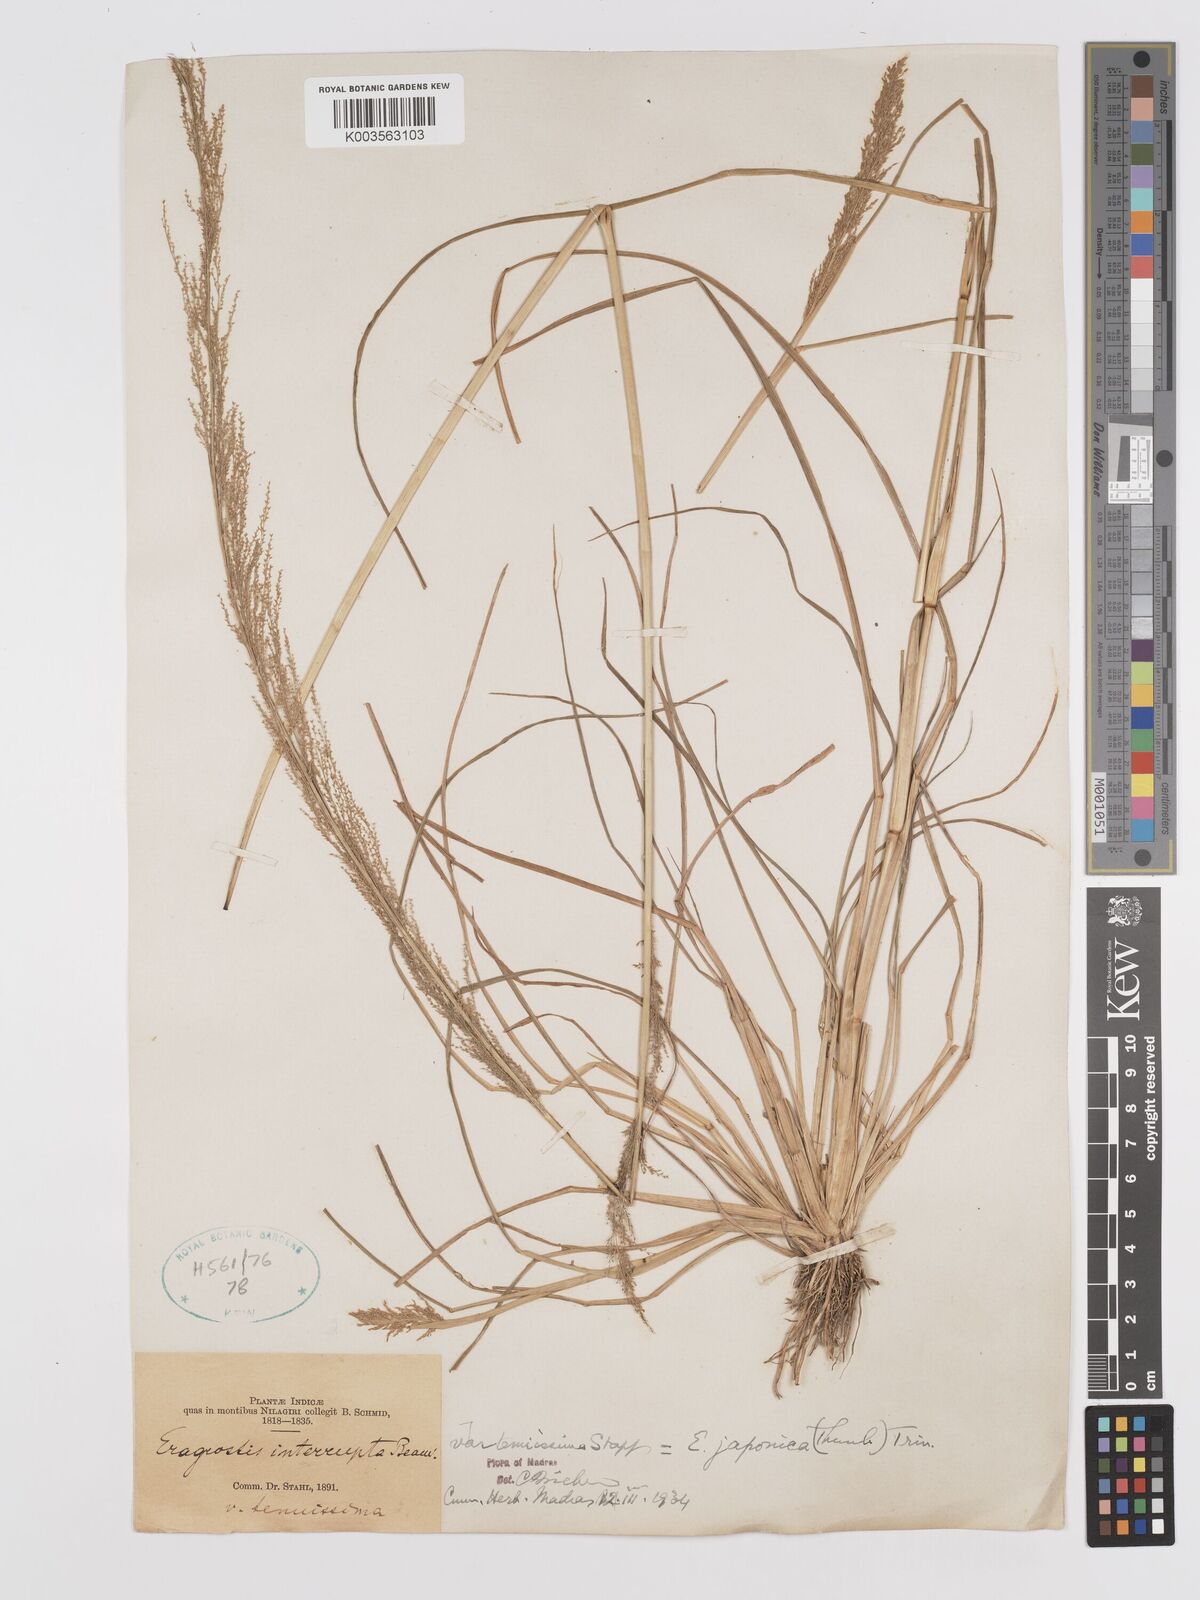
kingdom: Plantae
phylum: Tracheophyta
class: Liliopsida
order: Poales
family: Poaceae
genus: Eragrostis
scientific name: Eragrostis japonica
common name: Pond lovegrass
